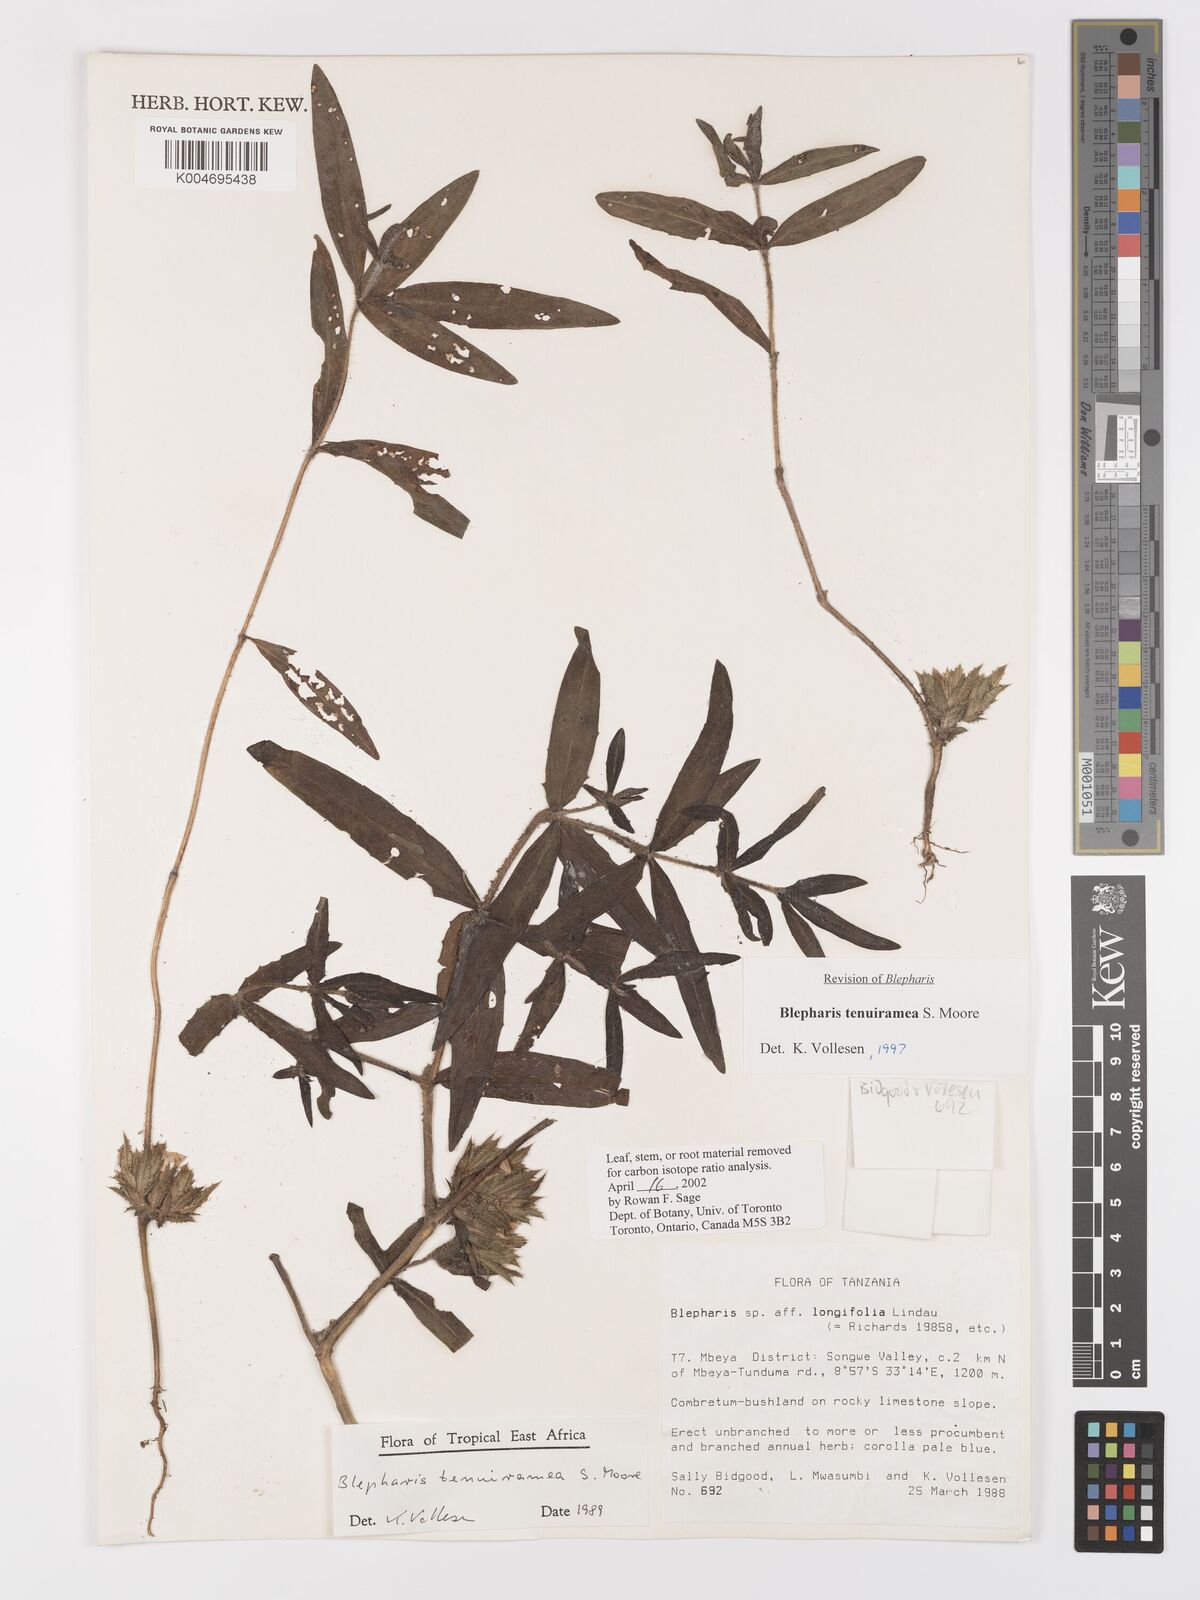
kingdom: Plantae
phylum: Tracheophyta
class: Magnoliopsida
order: Lamiales
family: Acanthaceae
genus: Blepharis
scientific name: Blepharis tenuiramea
